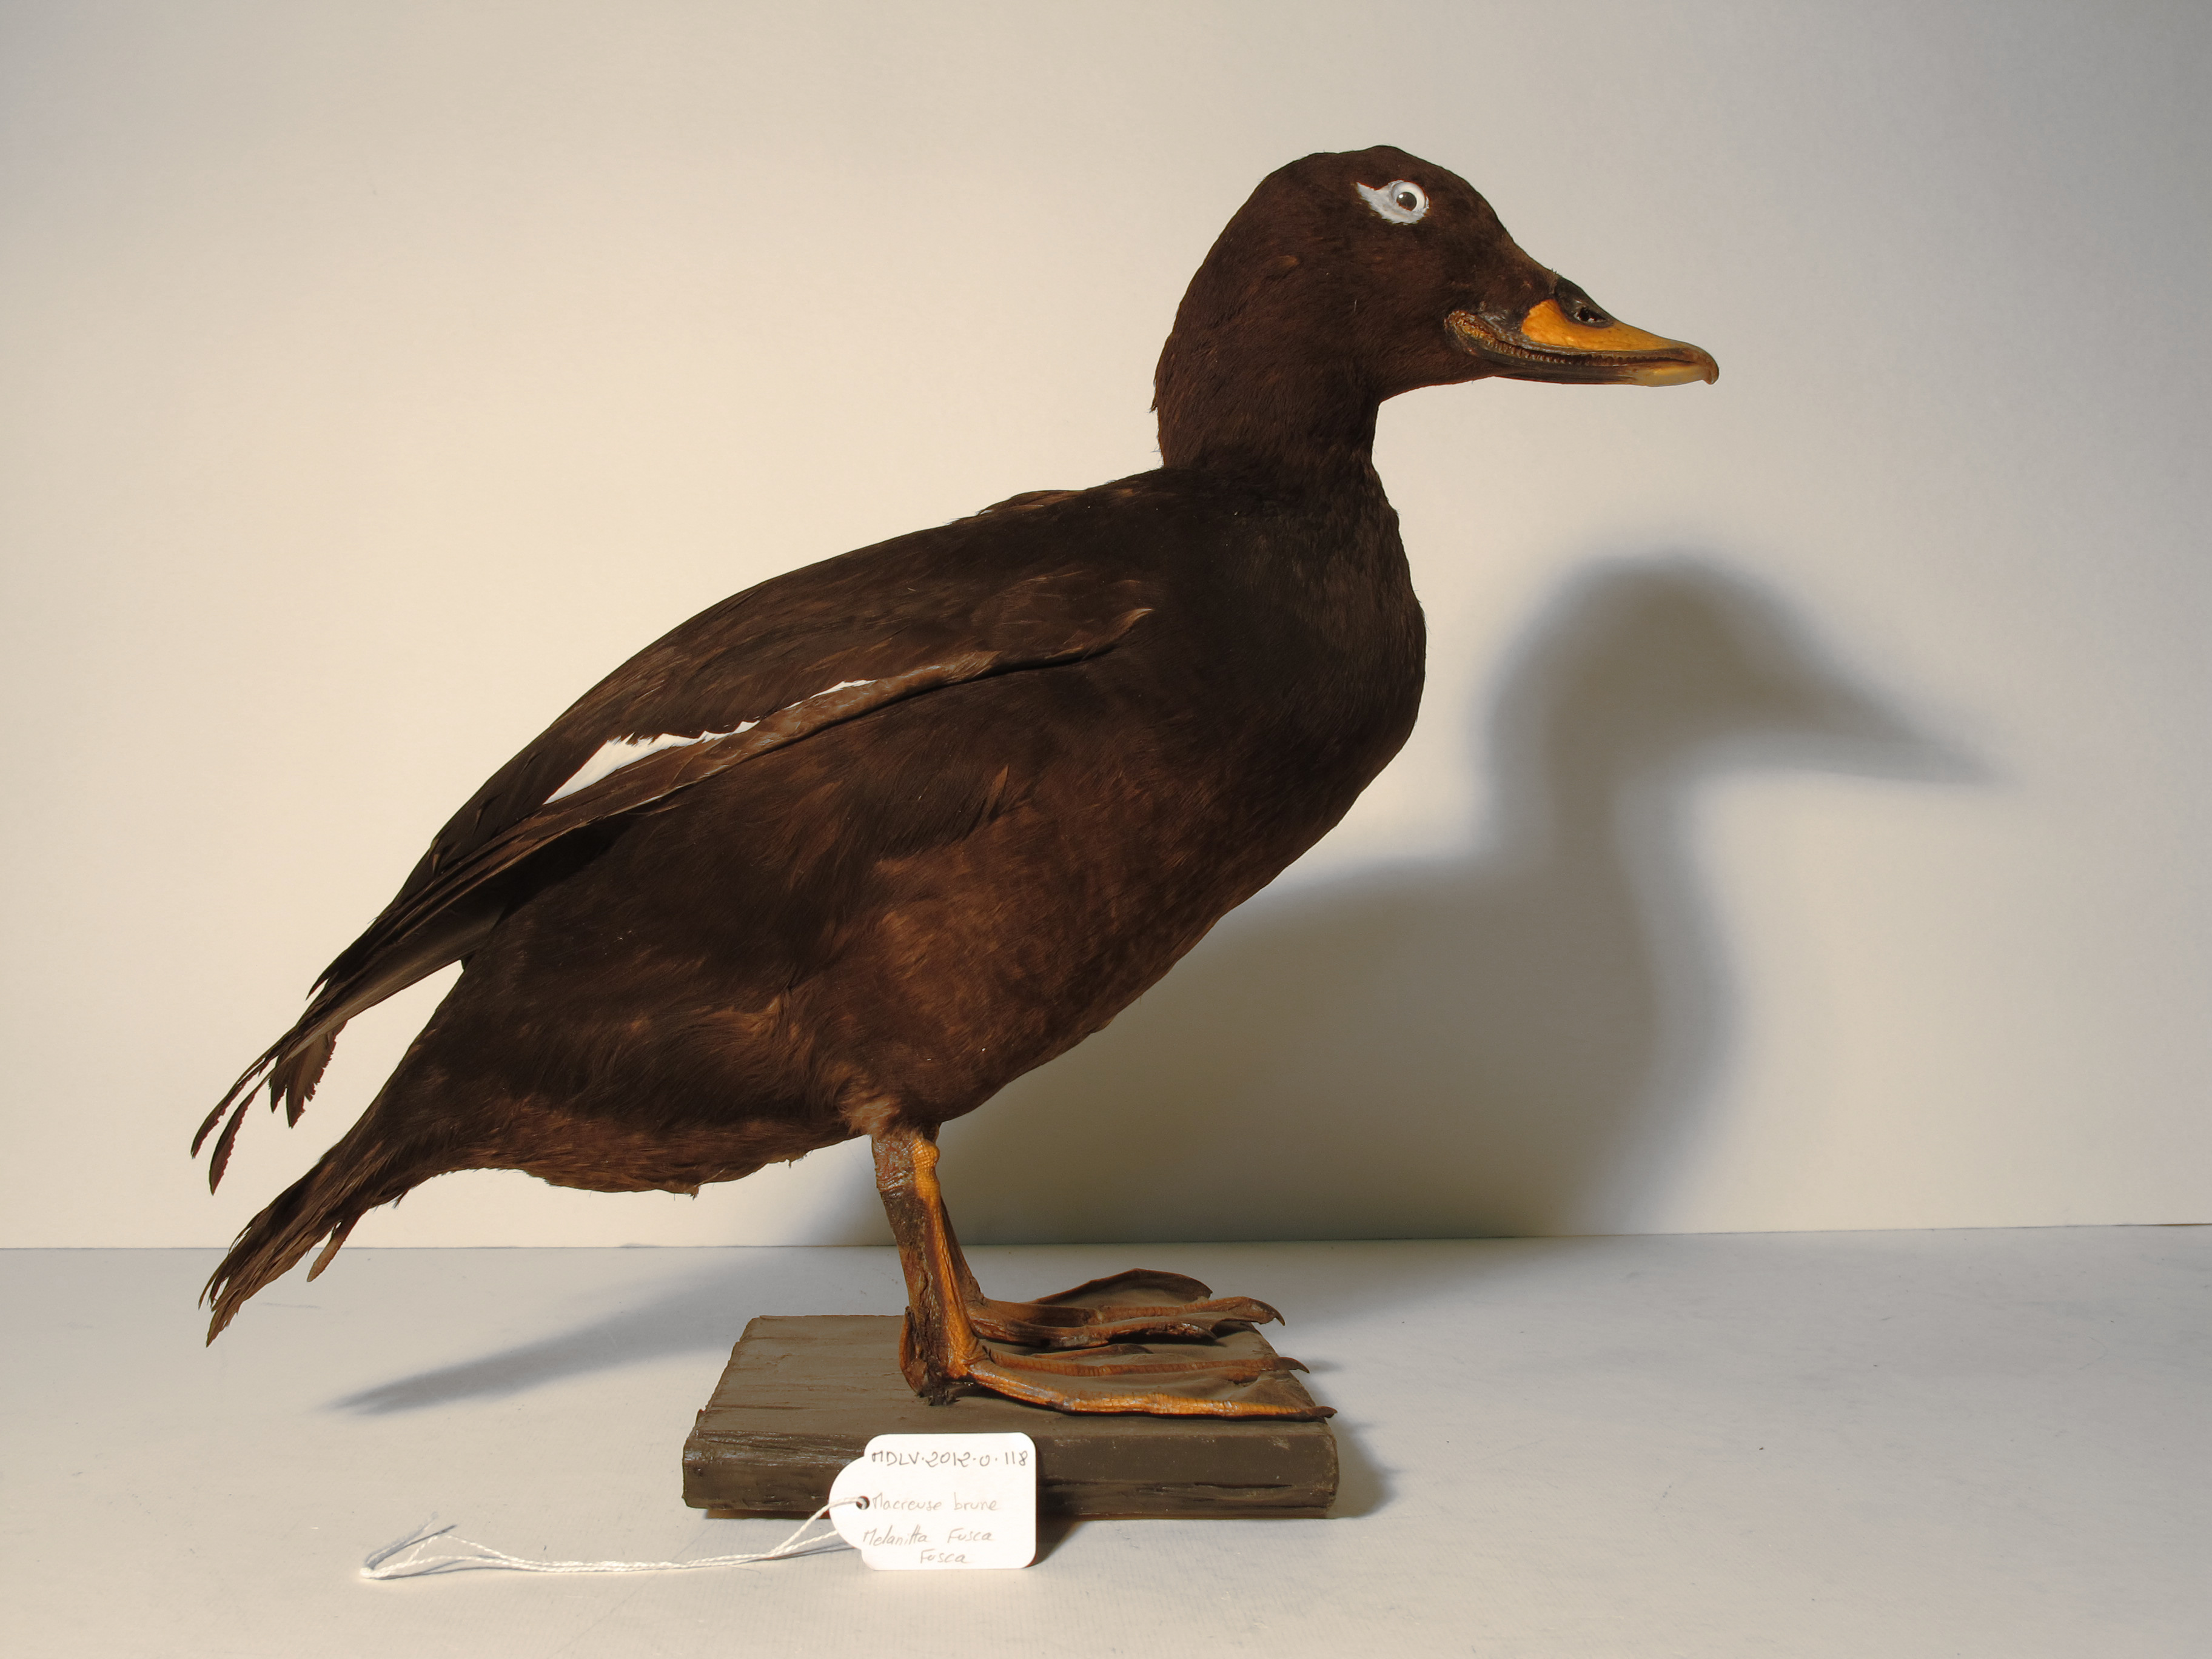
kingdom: Animalia
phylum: Chordata
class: Aves
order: Anseriformes
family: Anatidae
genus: Melanitta
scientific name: Melanitta fusca
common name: White-winged Scoter
